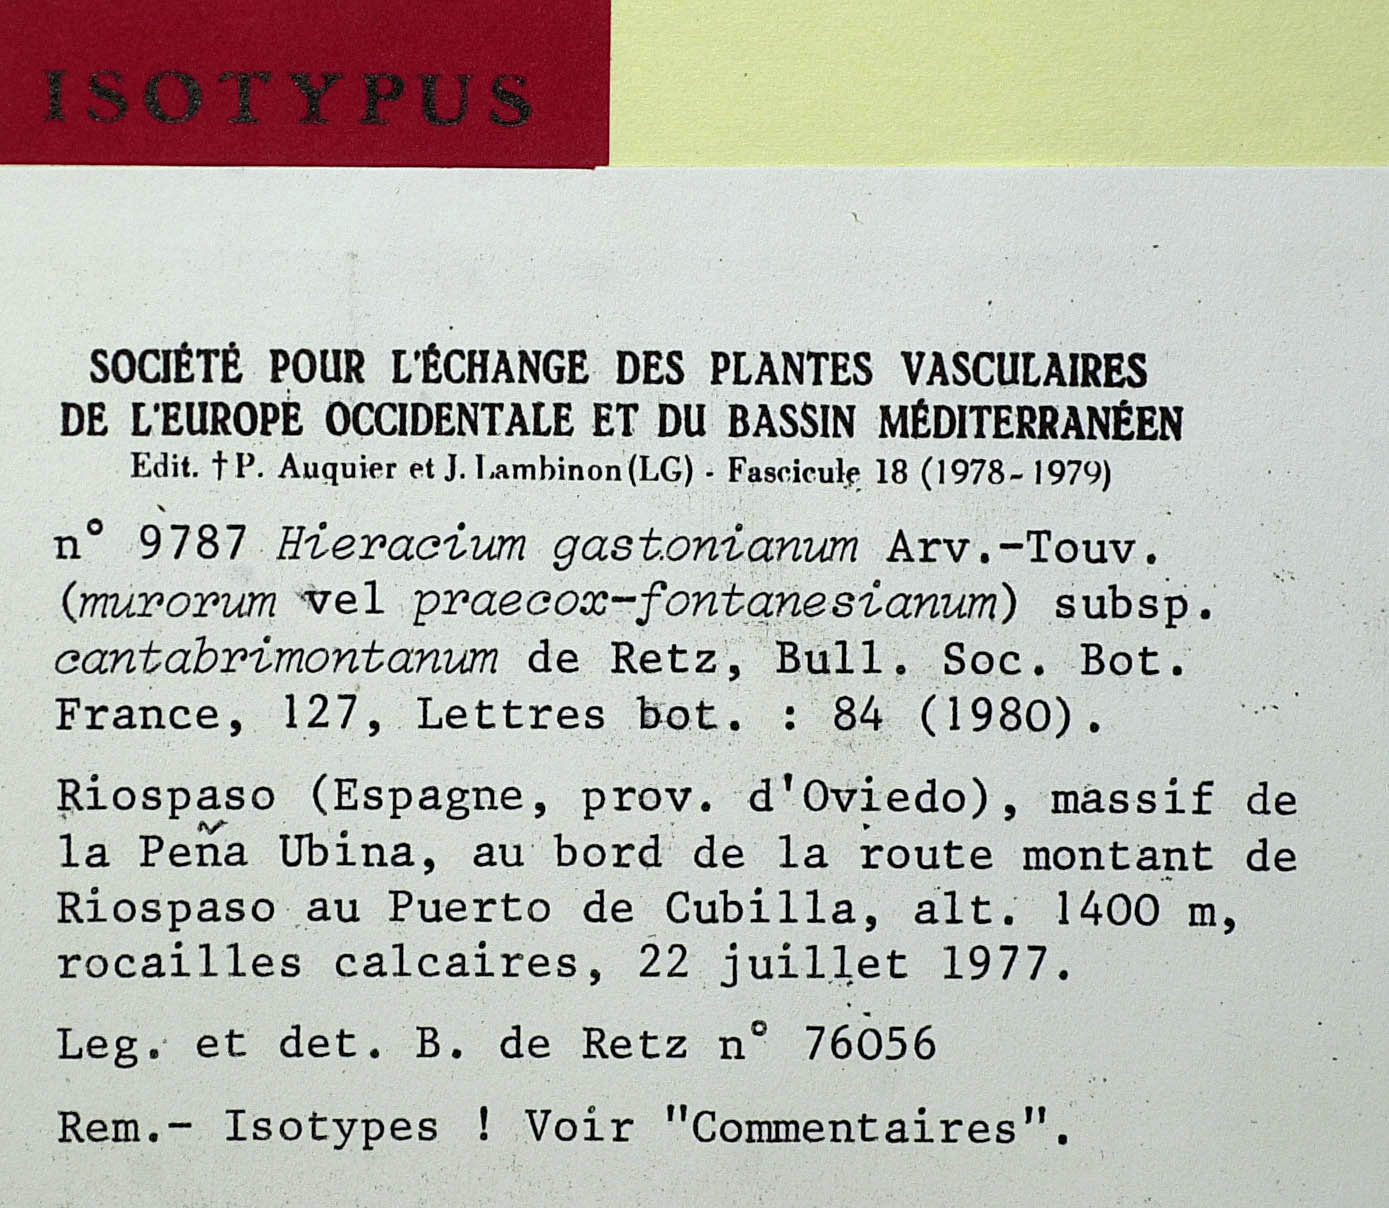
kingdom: Plantae
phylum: Tracheophyta
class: Magnoliopsida
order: Asterales
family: Asteraceae
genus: Hieracium
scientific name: Hieracium legionense
